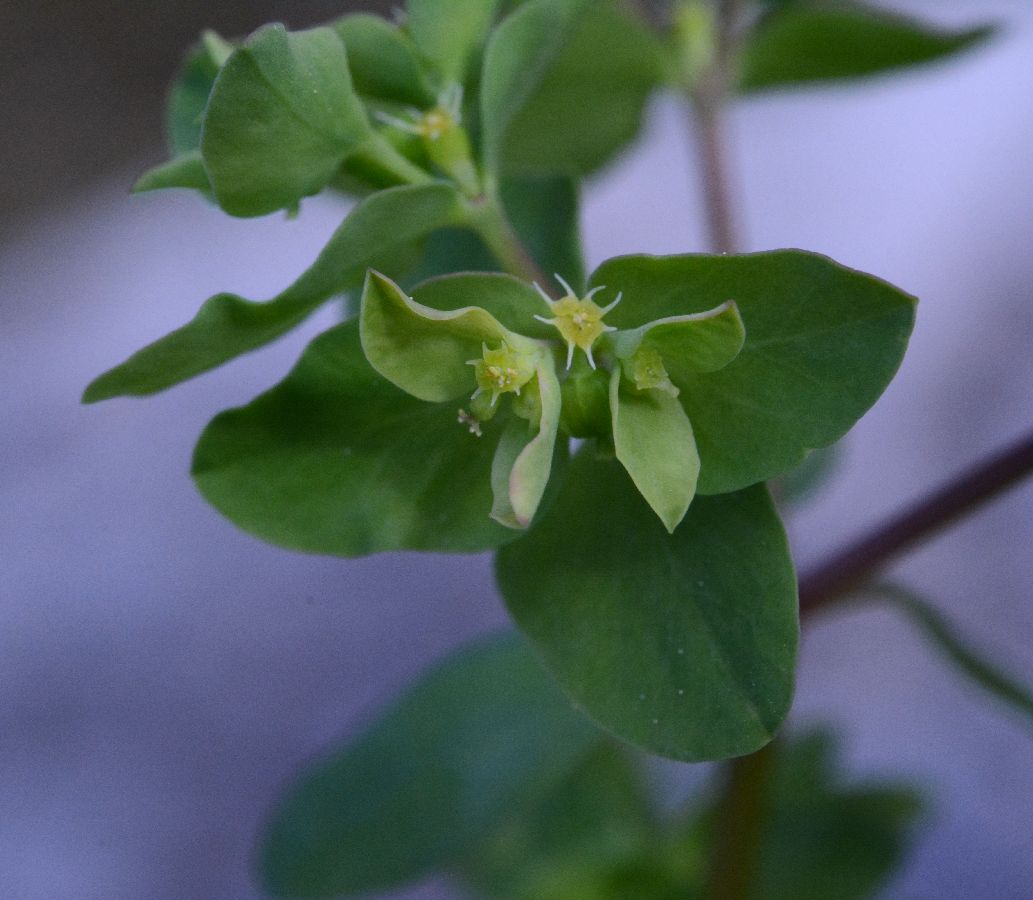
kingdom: Plantae
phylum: Tracheophyta
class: Magnoliopsida
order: Malpighiales
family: Euphorbiaceae
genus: Euphorbia
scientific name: Euphorbia peplus
